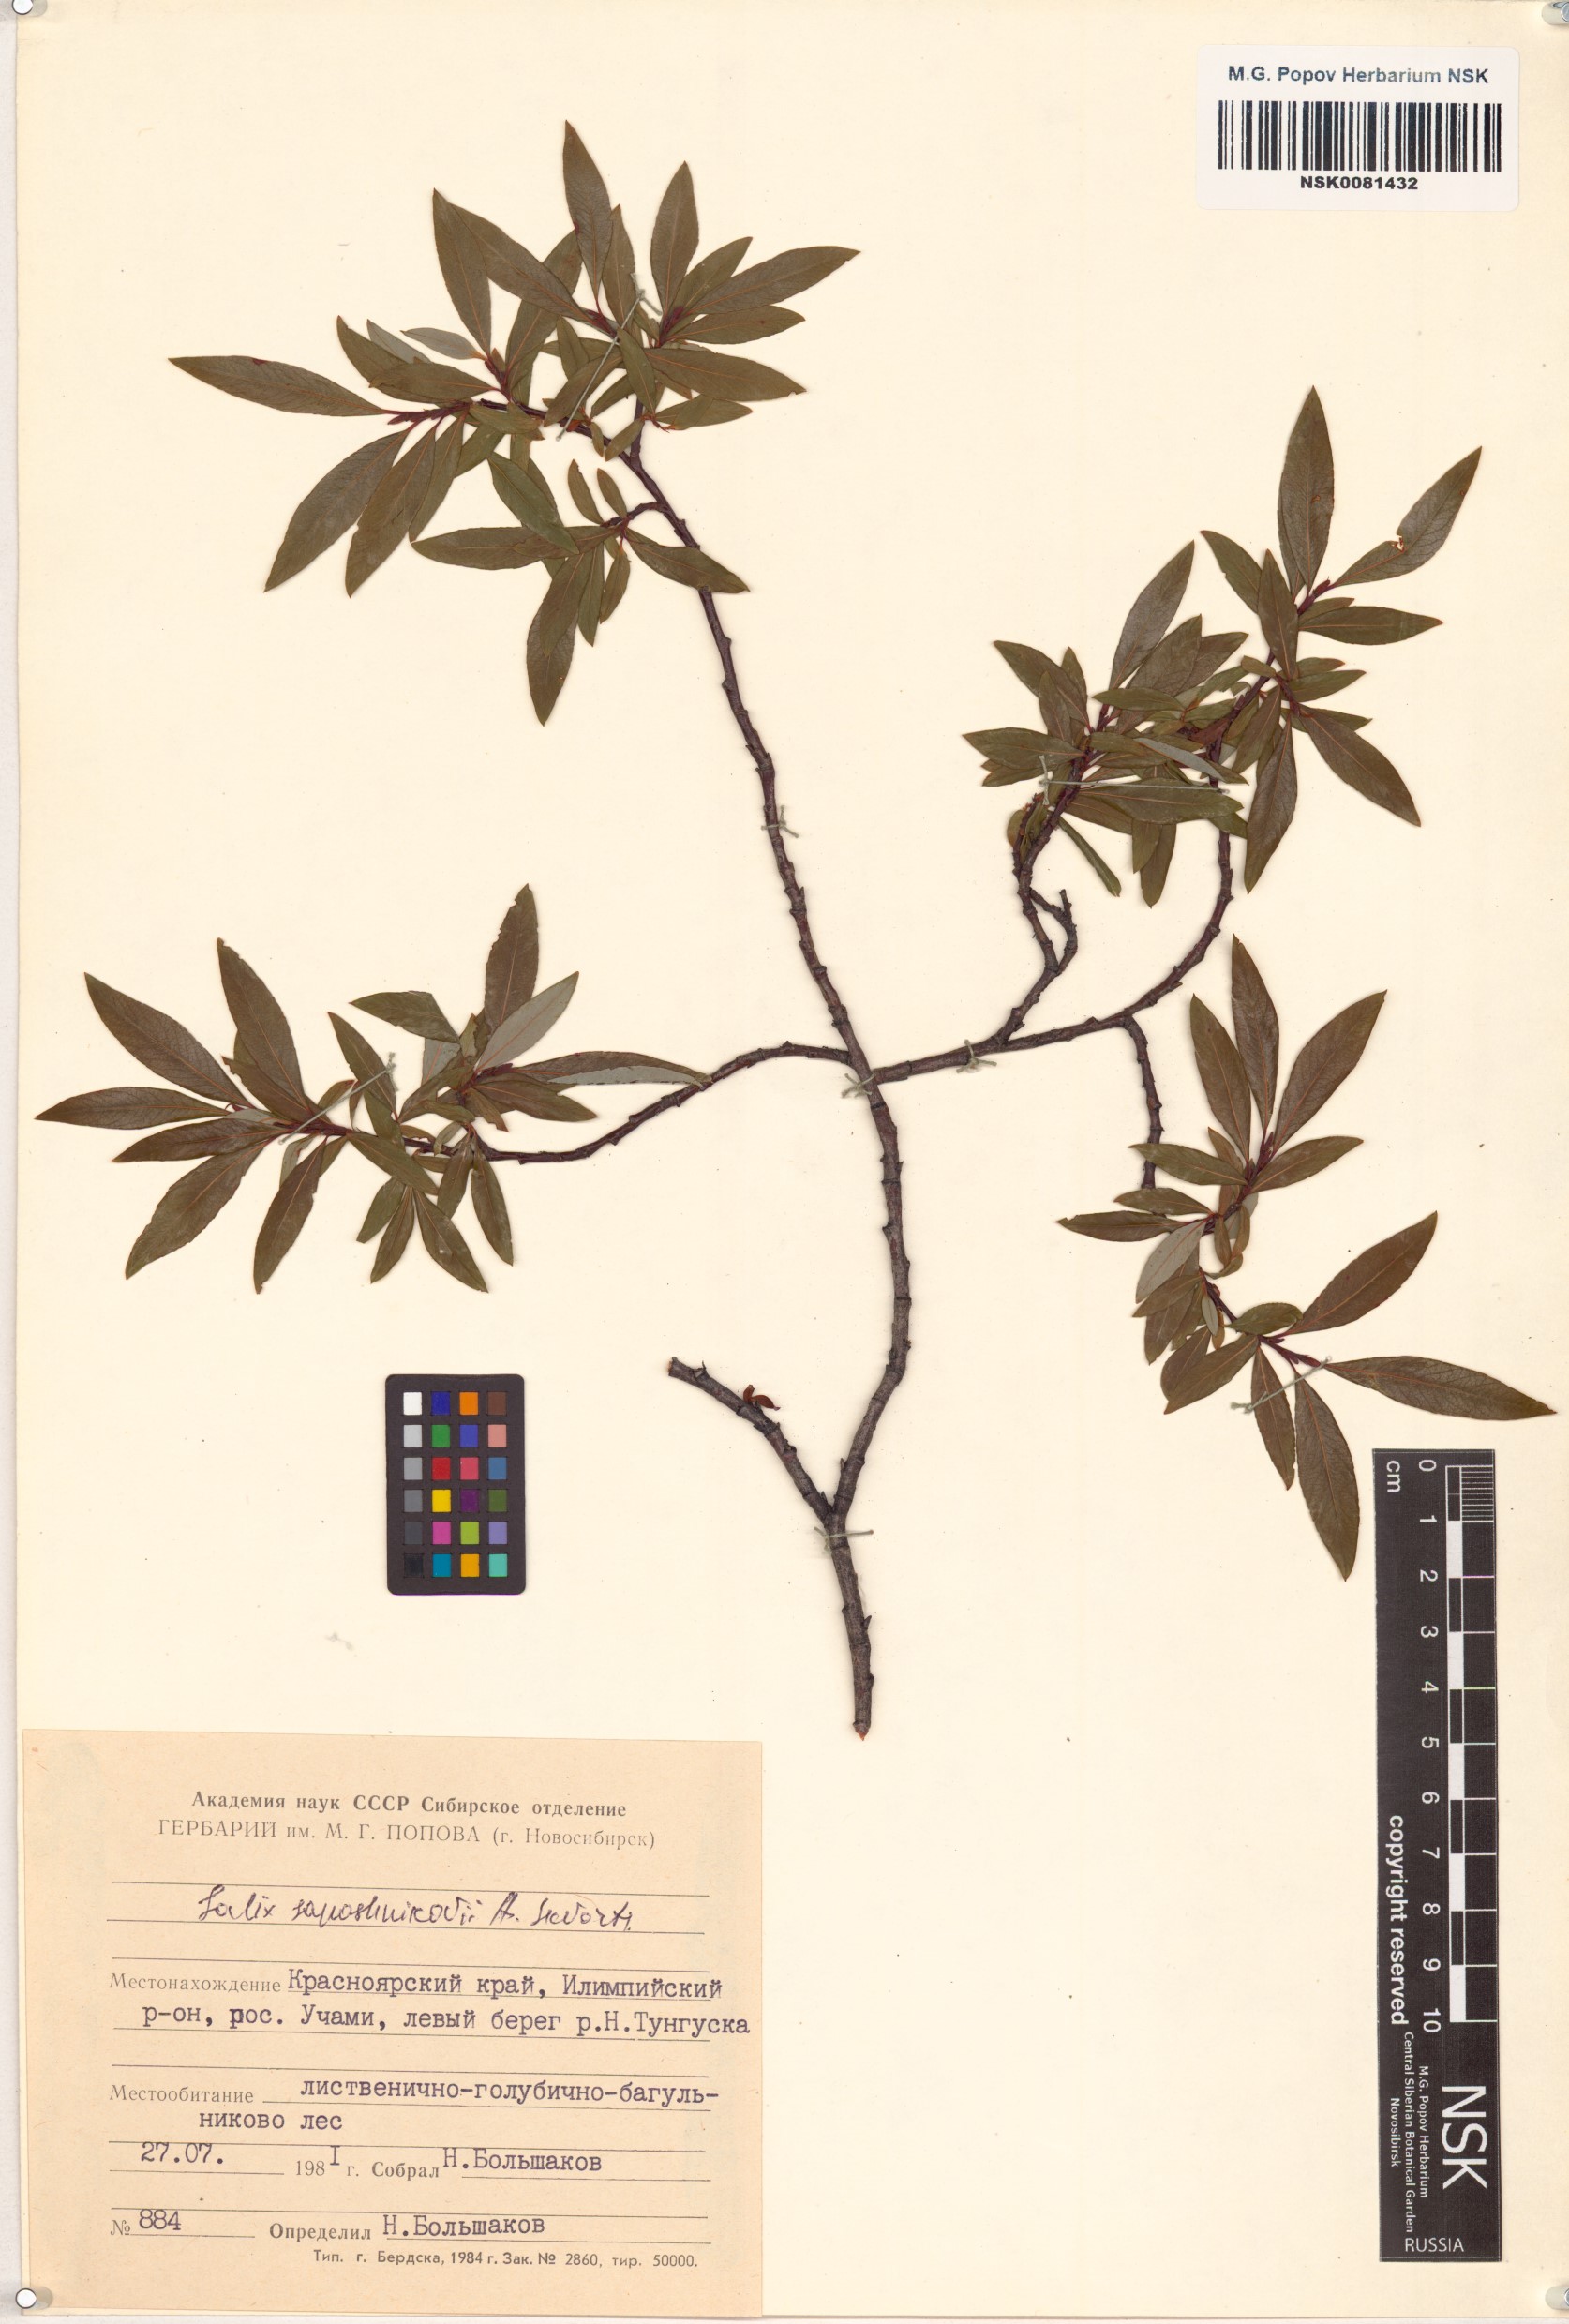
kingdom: Plantae
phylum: Tracheophyta
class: Magnoliopsida
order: Malpighiales
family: Salicaceae
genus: Salix
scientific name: Salix saposhnikovii
